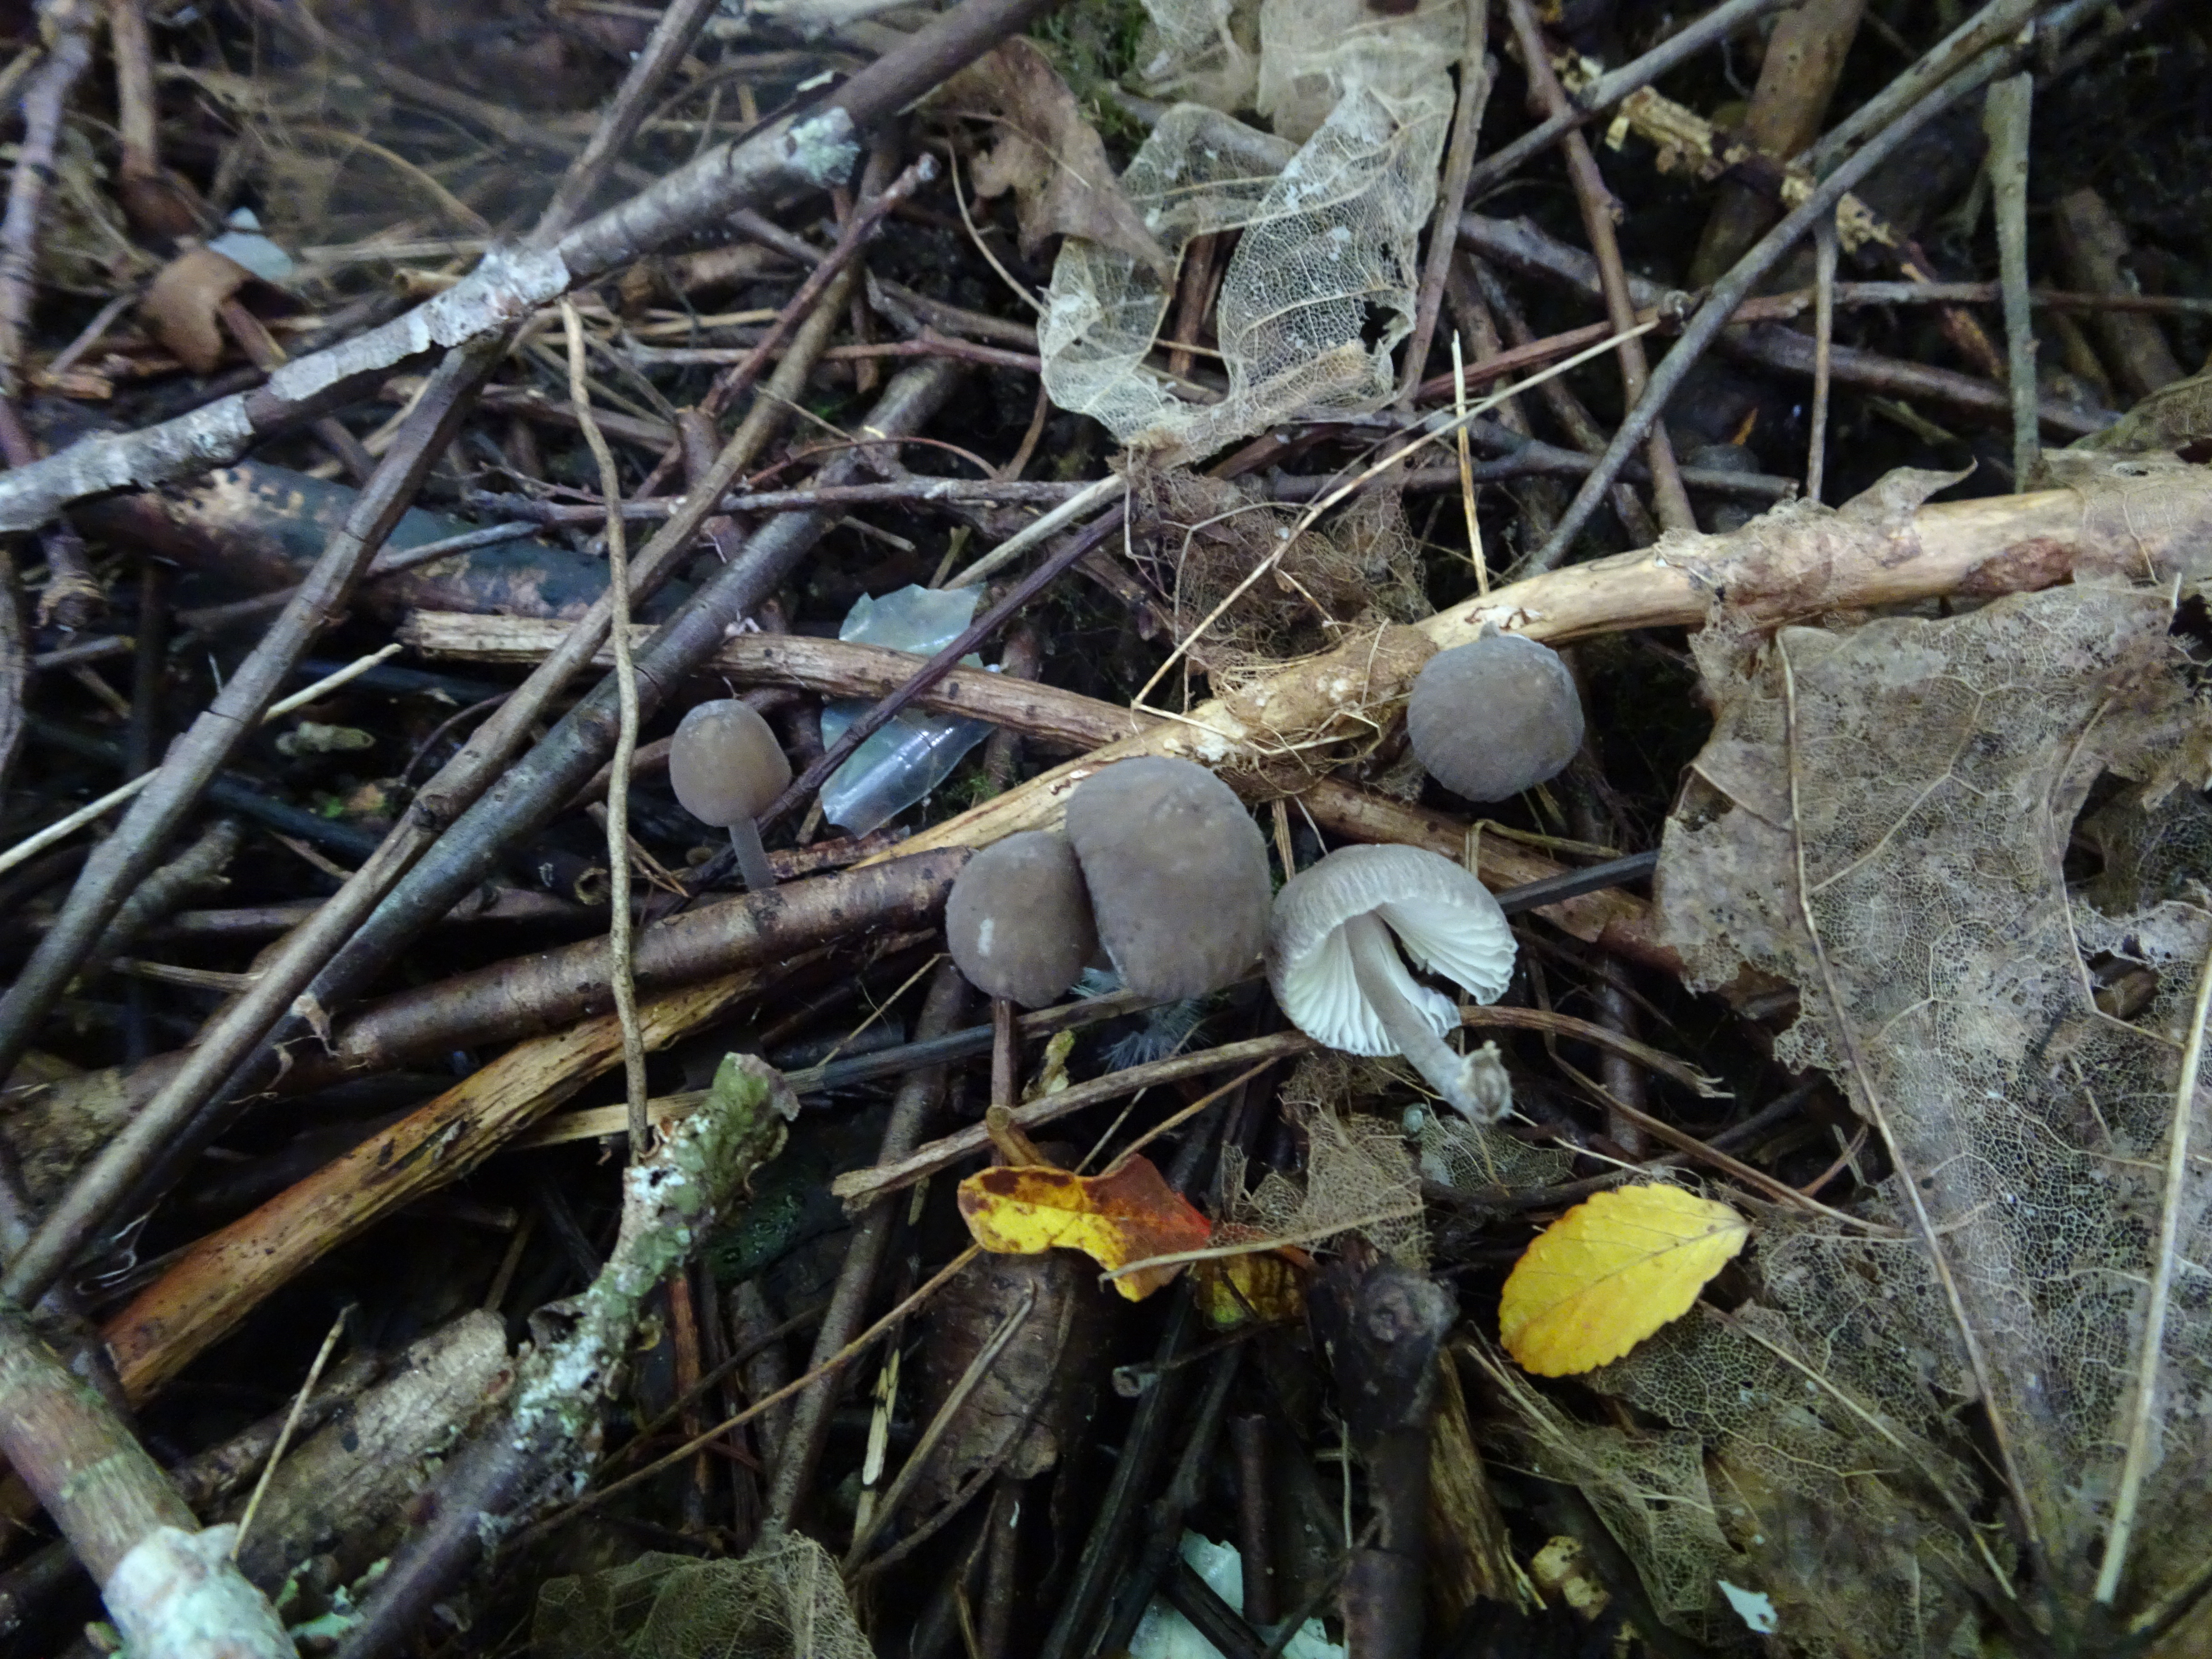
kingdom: Fungi
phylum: Basidiomycota
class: Agaricomycetes
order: Agaricales
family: Mycenaceae
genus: Mycena
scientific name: Mycena
